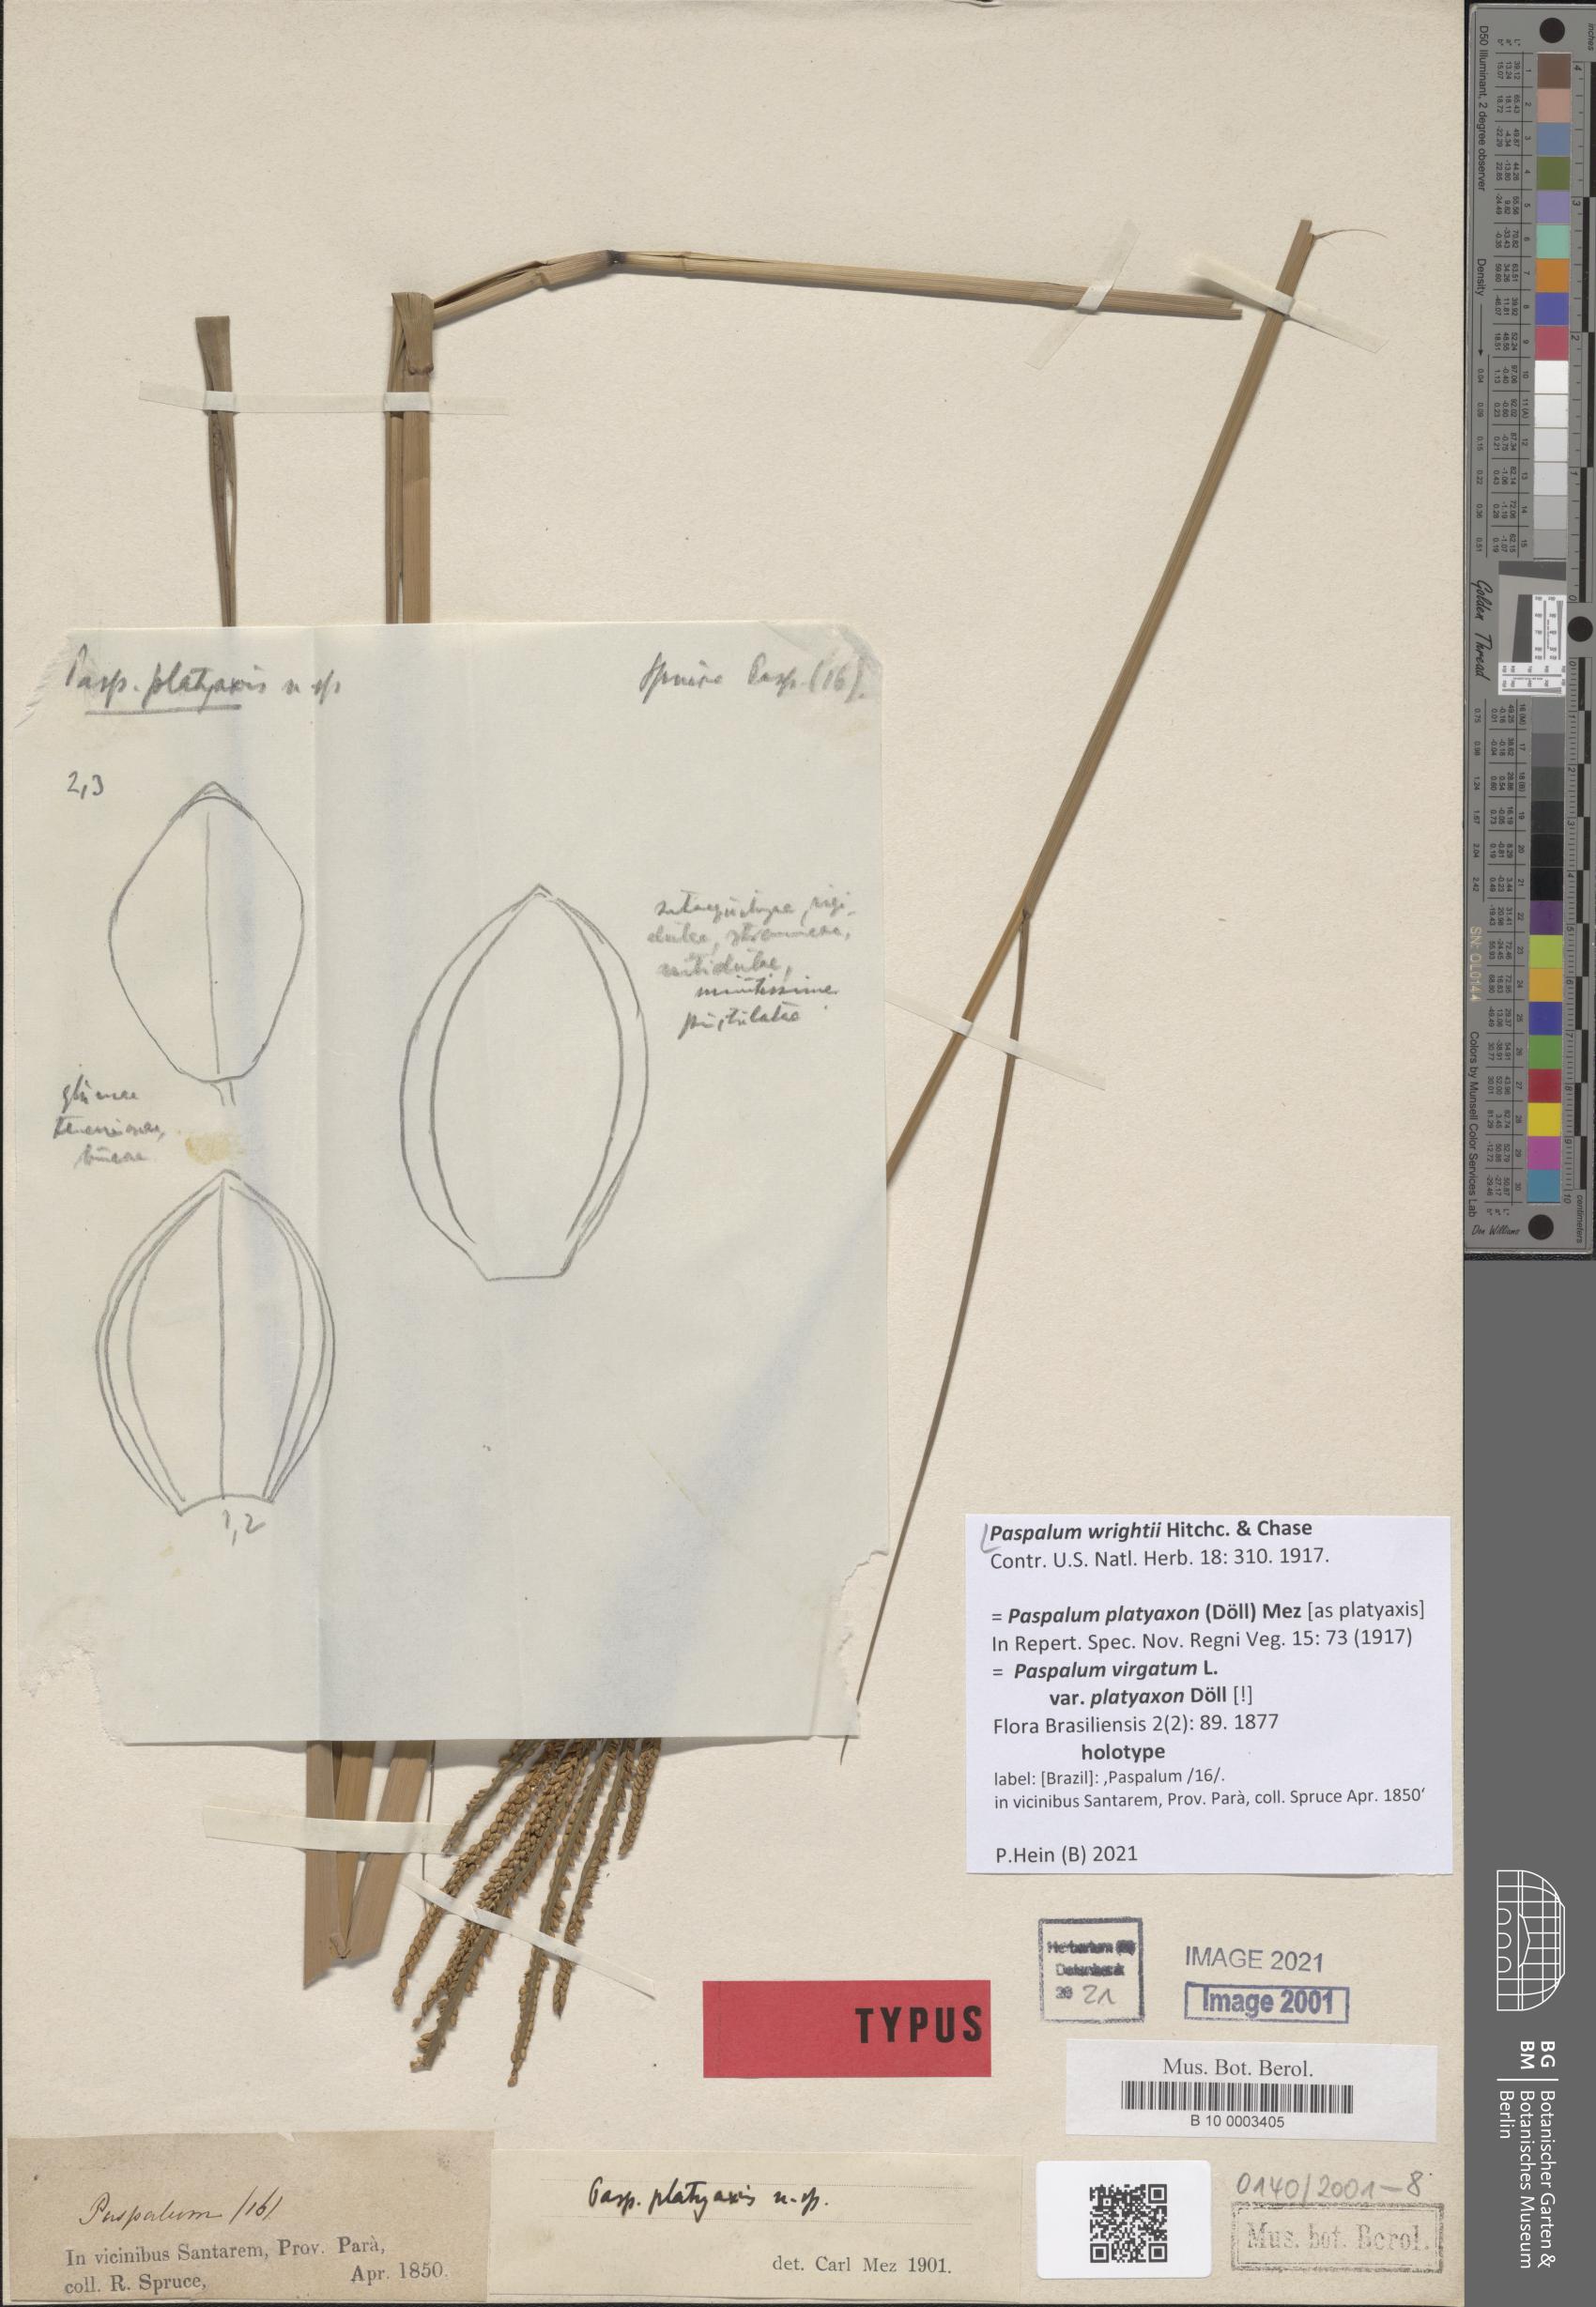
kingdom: Plantae
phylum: Tracheophyta
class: Liliopsida
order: Poales
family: Poaceae
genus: Paspalum
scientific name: Paspalum wrightii
